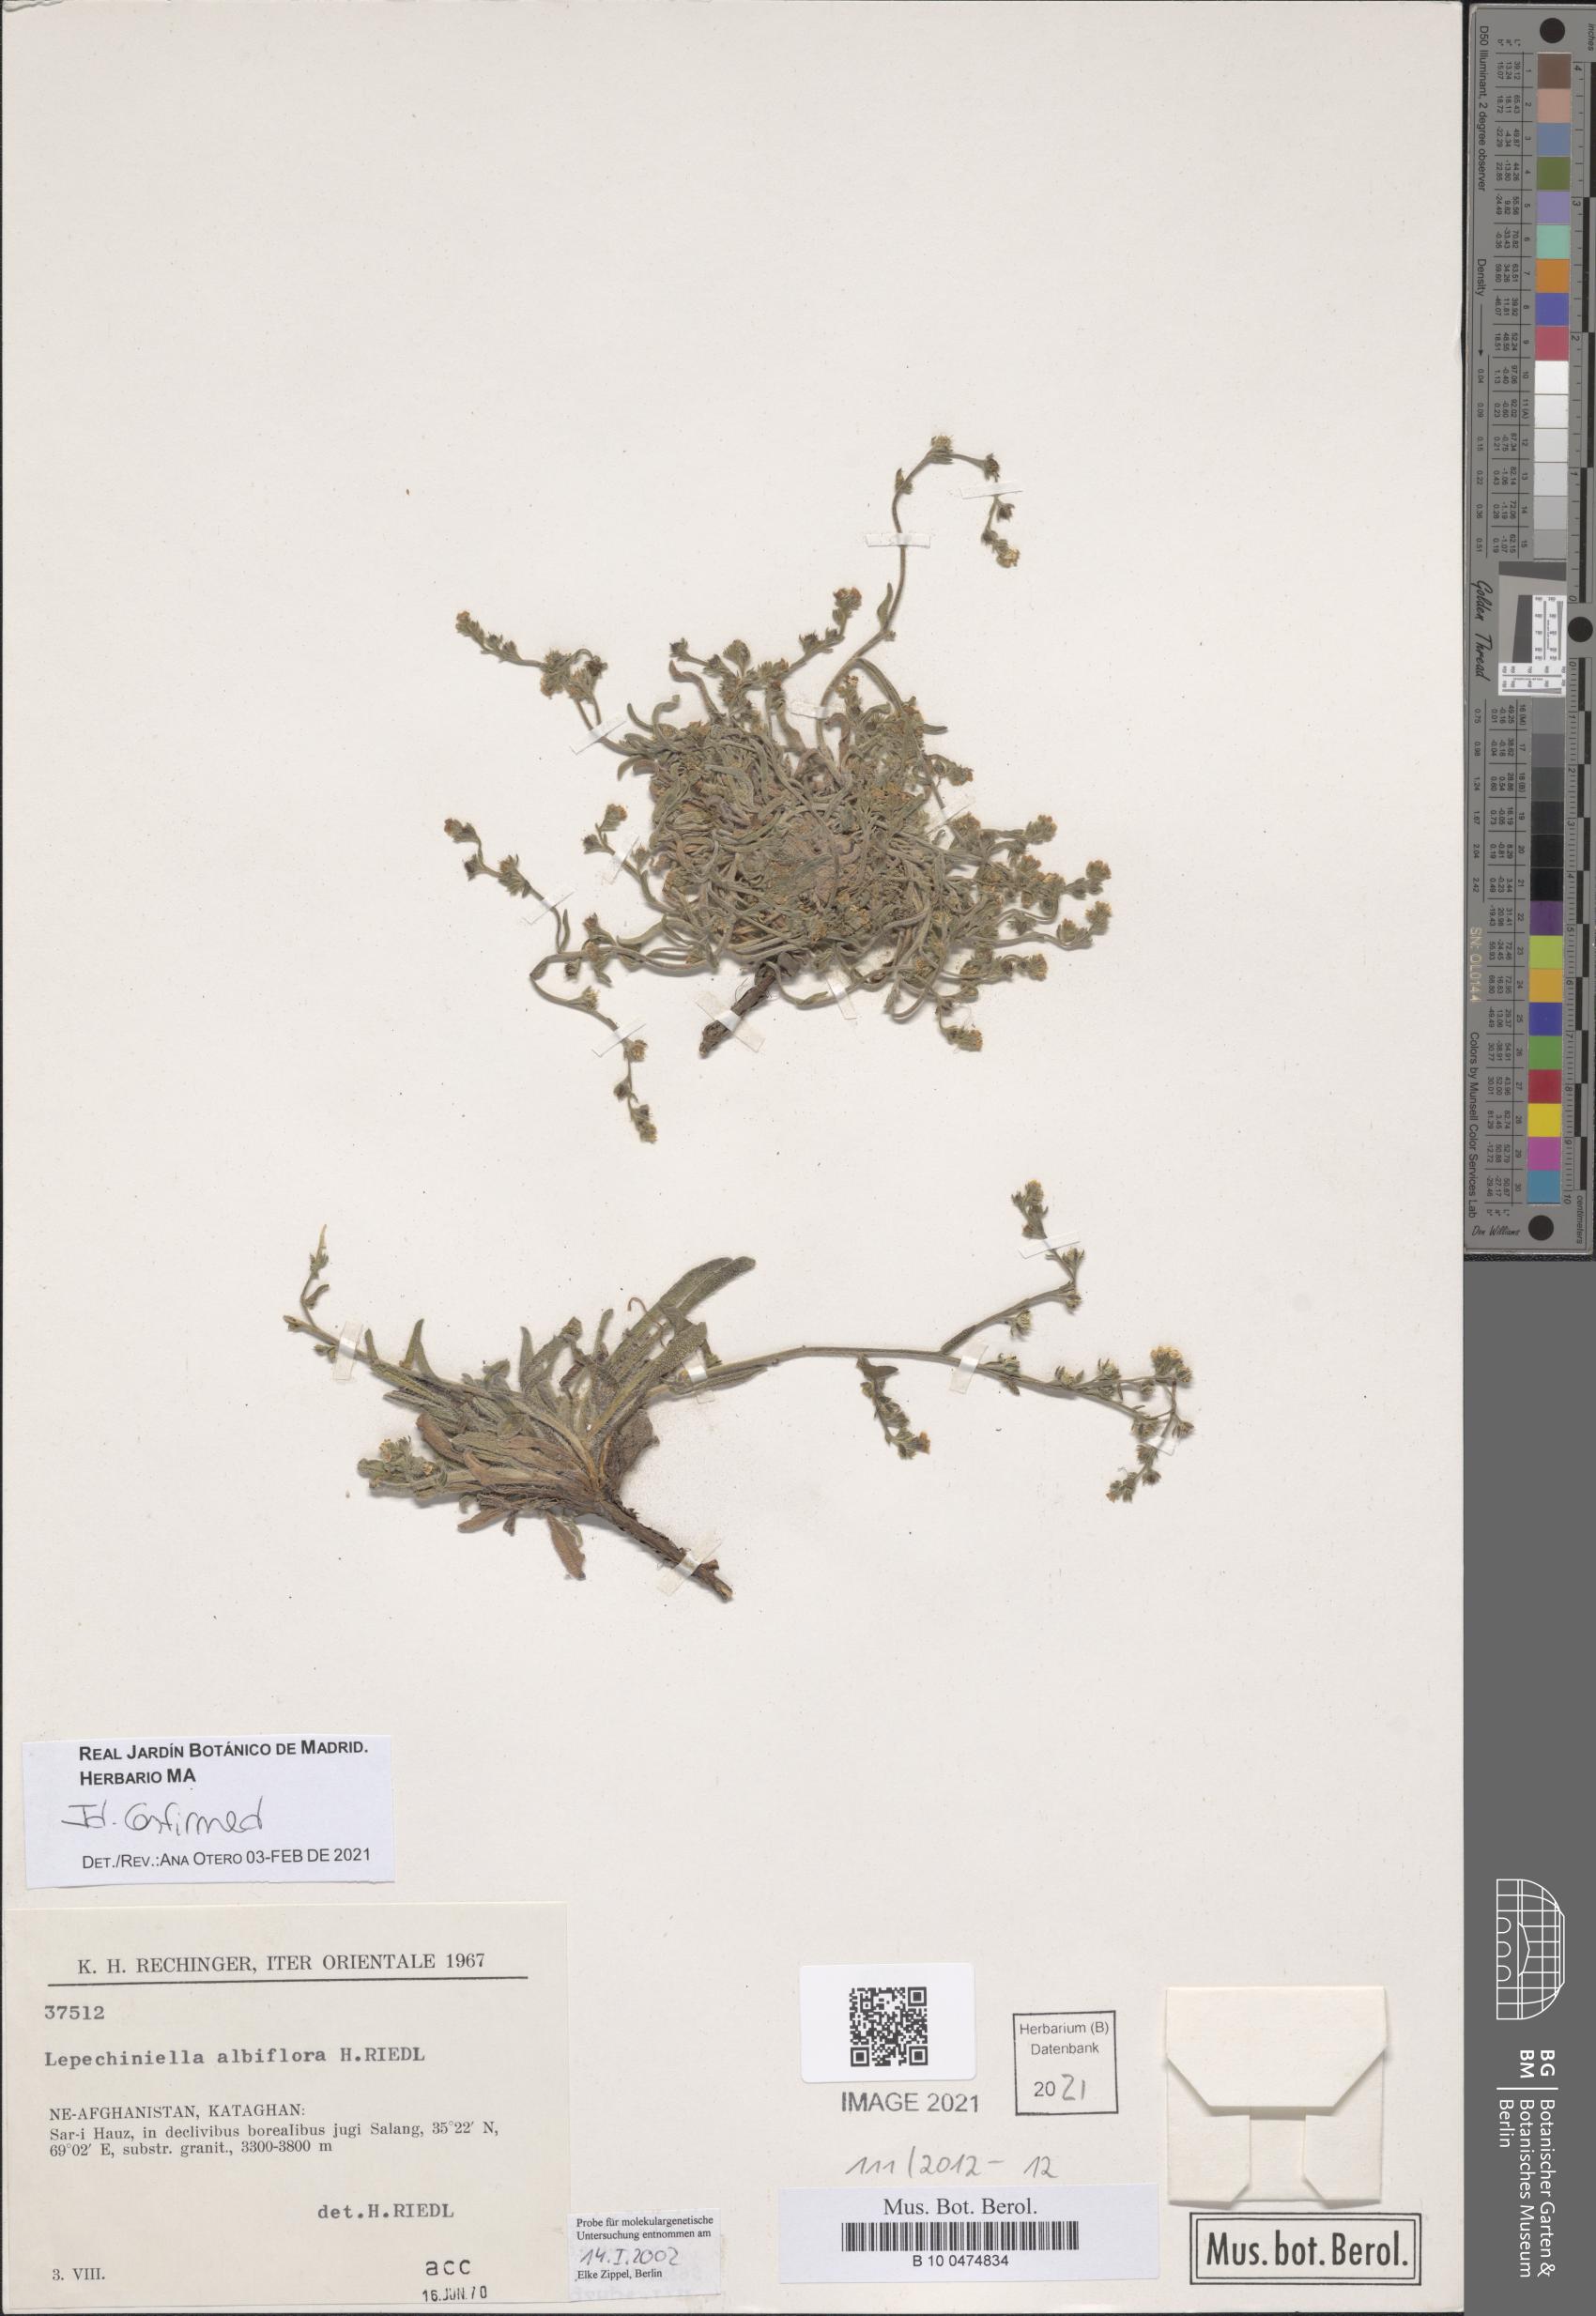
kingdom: Plantae
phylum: Tracheophyta
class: Magnoliopsida
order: Boraginales
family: Boraginaceae
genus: Lappula
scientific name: Lappula albiflora
